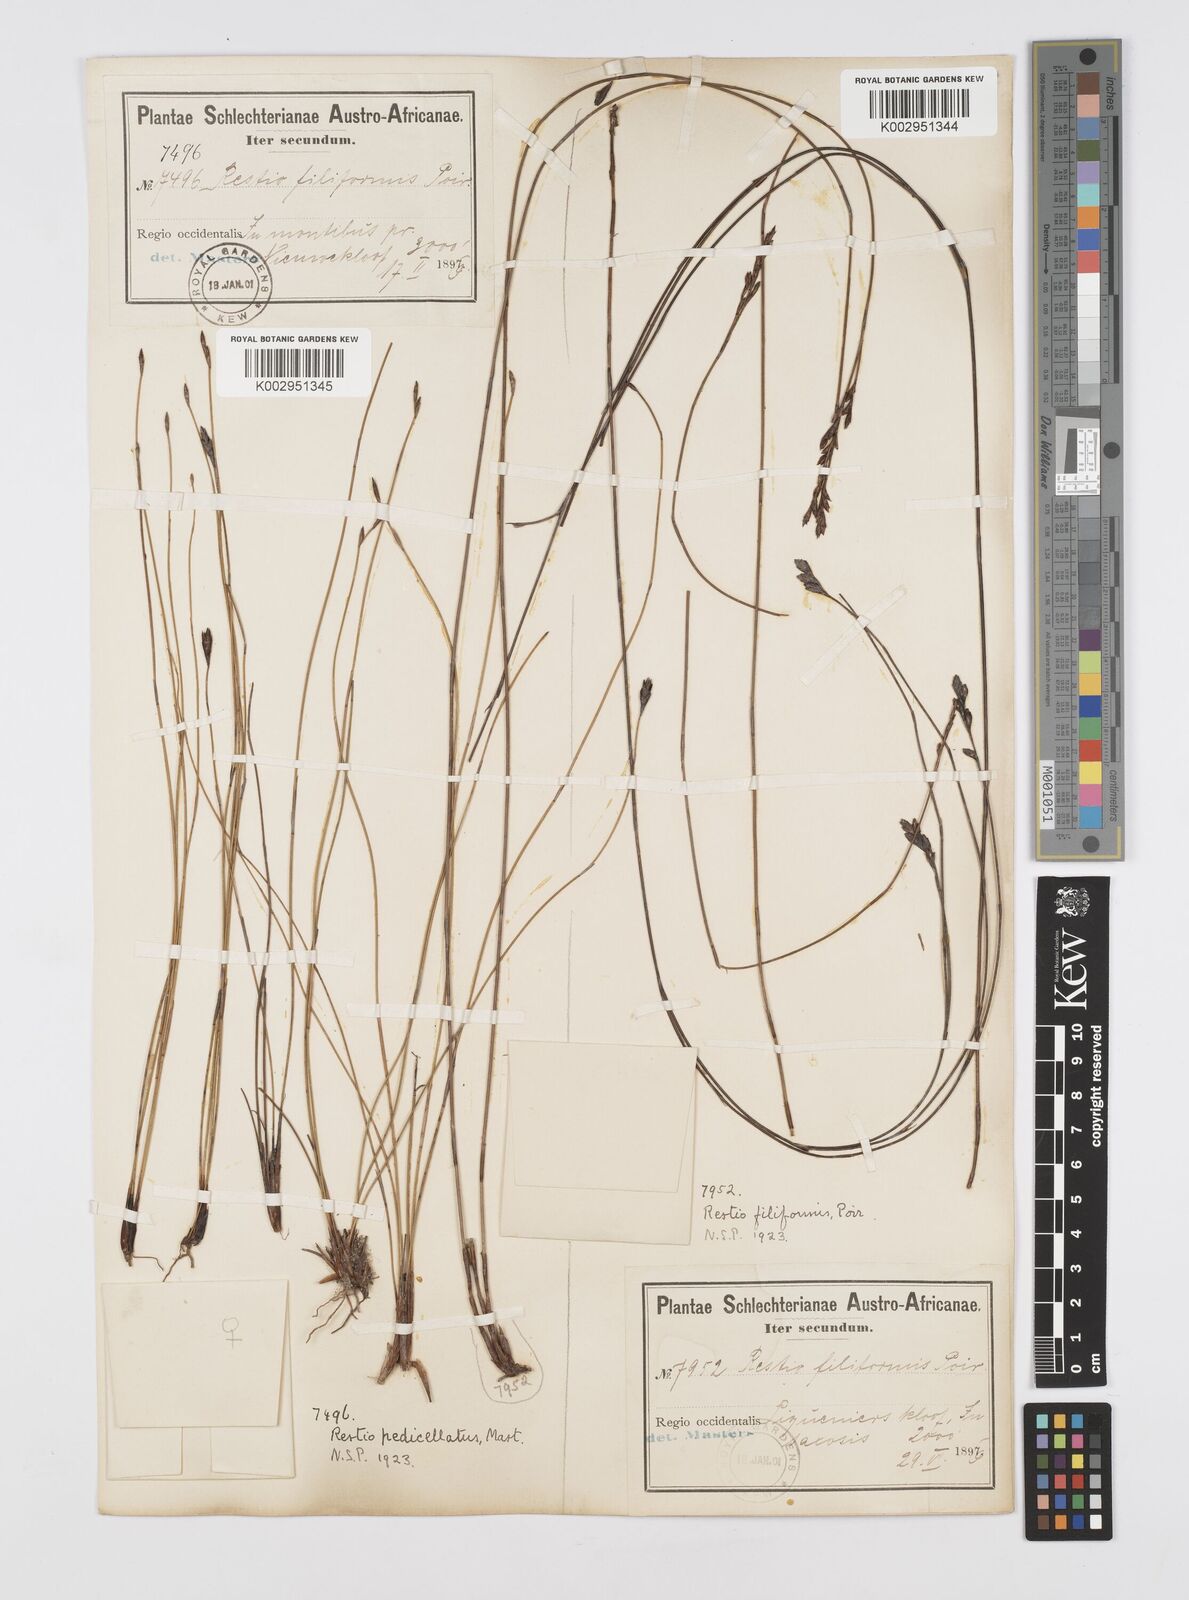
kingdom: Plantae
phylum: Tracheophyta
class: Liliopsida
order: Poales
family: Restionaceae
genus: Restio
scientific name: Restio pedicellatus
